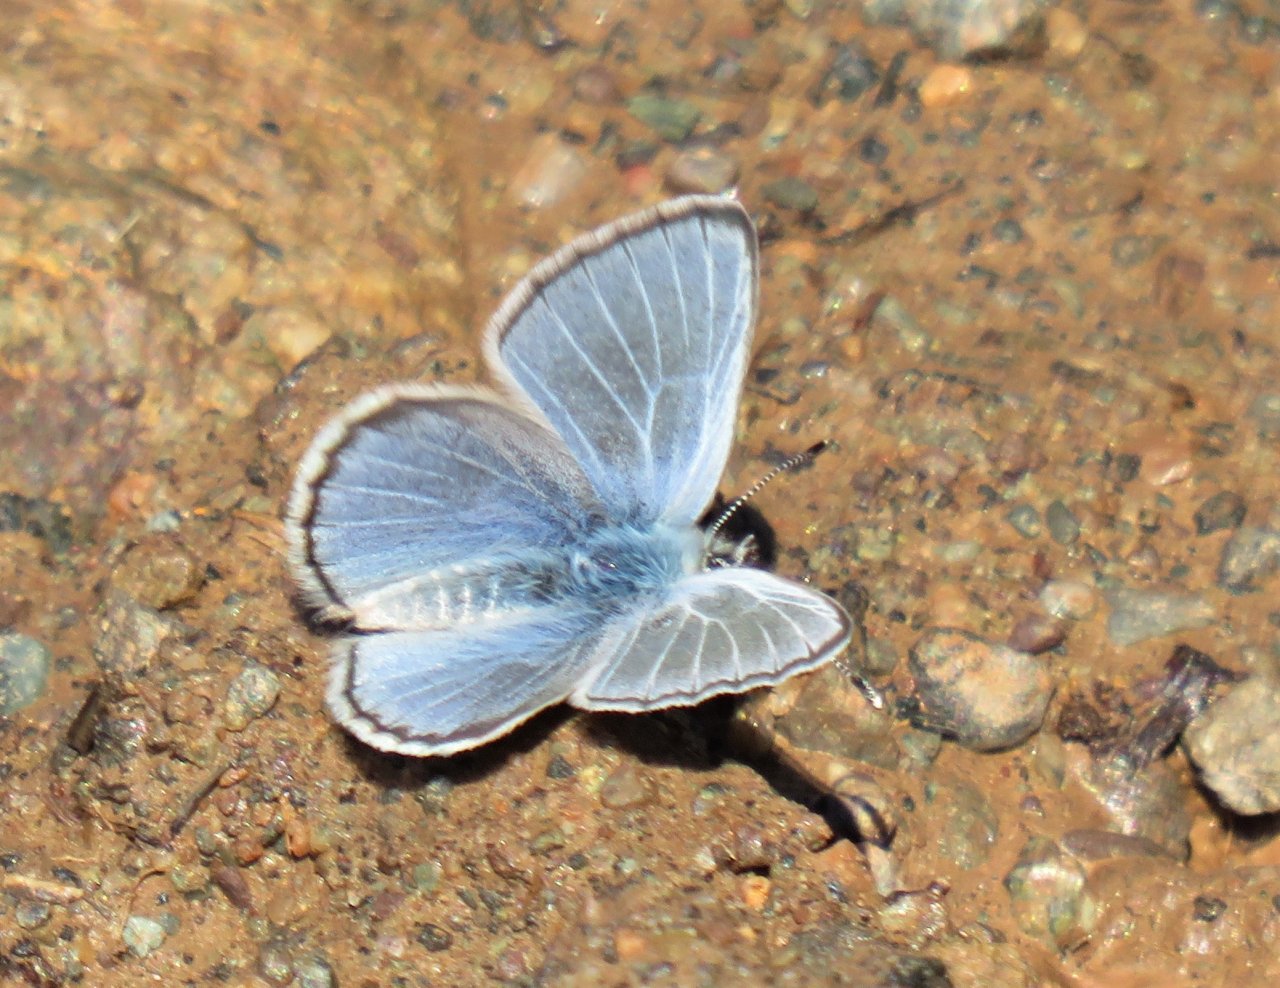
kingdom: Animalia
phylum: Arthropoda
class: Insecta
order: Lepidoptera
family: Lycaenidae
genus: Glaucopsyche
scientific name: Glaucopsyche lygdamus
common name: Silvery Blue
